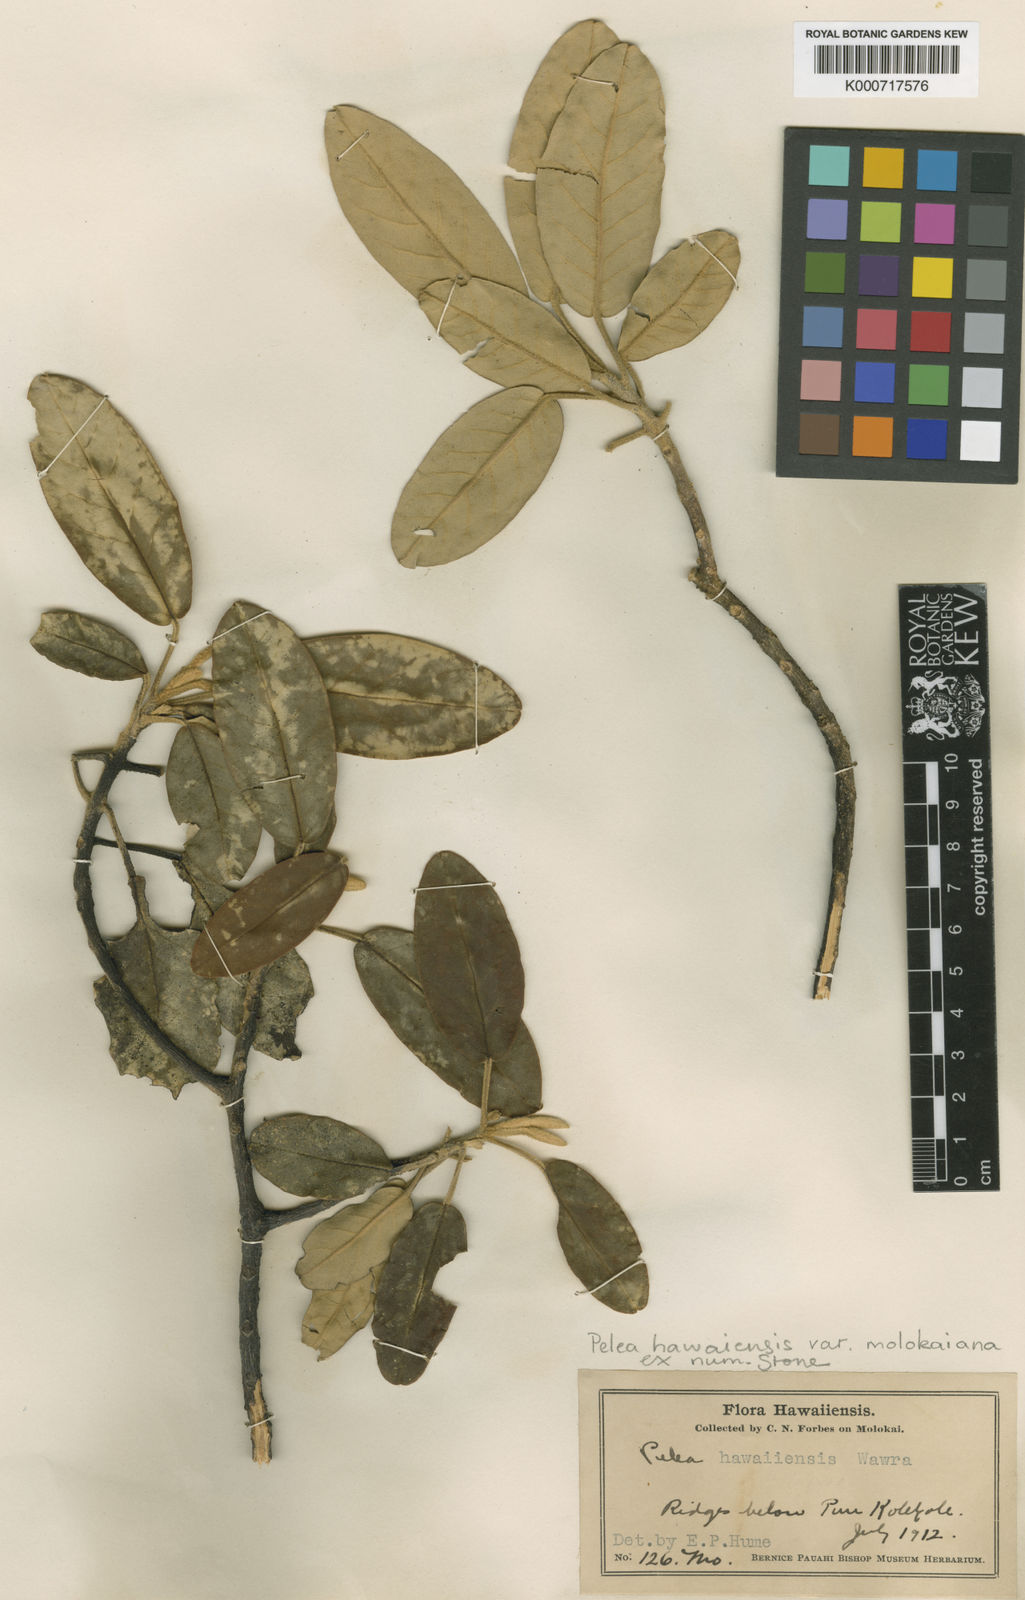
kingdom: Plantae
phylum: Tracheophyta
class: Magnoliopsida
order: Sapindales
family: Rutaceae
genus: Melicope
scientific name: Melicope hawaiensis
